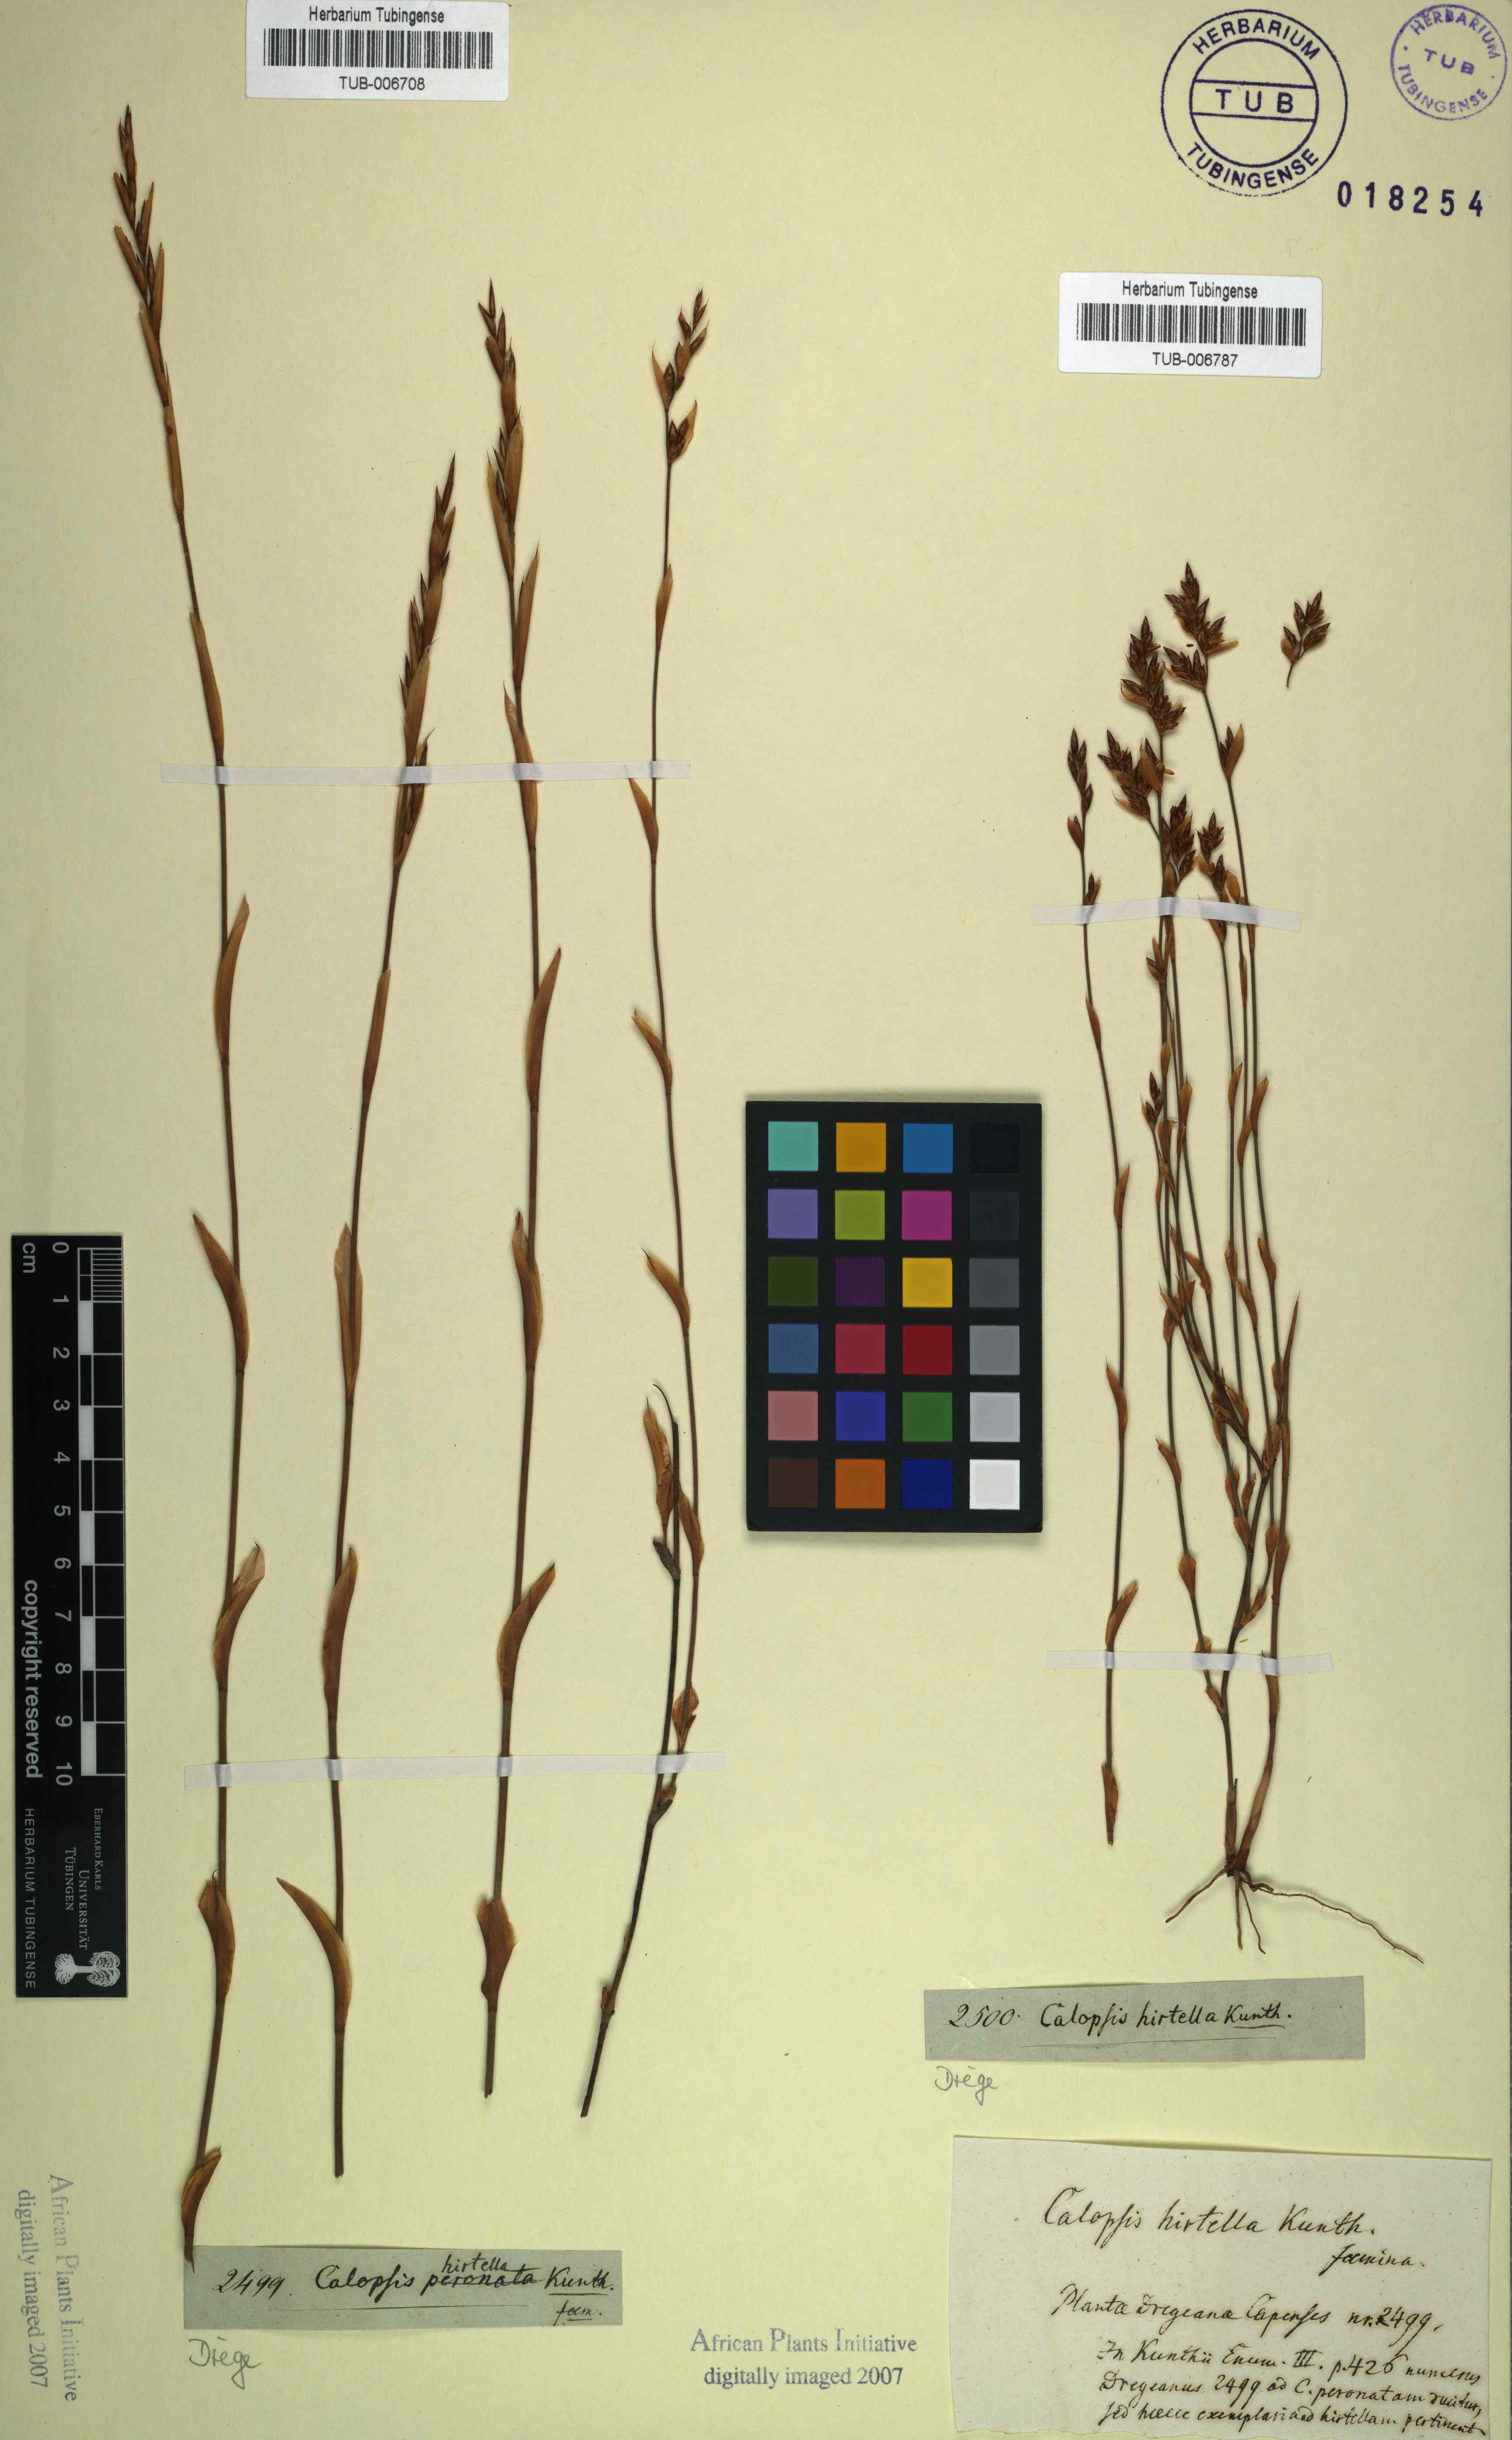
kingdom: Plantae
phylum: Tracheophyta
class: Liliopsida
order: Poales
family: Restionaceae
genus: Restio
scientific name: Restio vimineus
